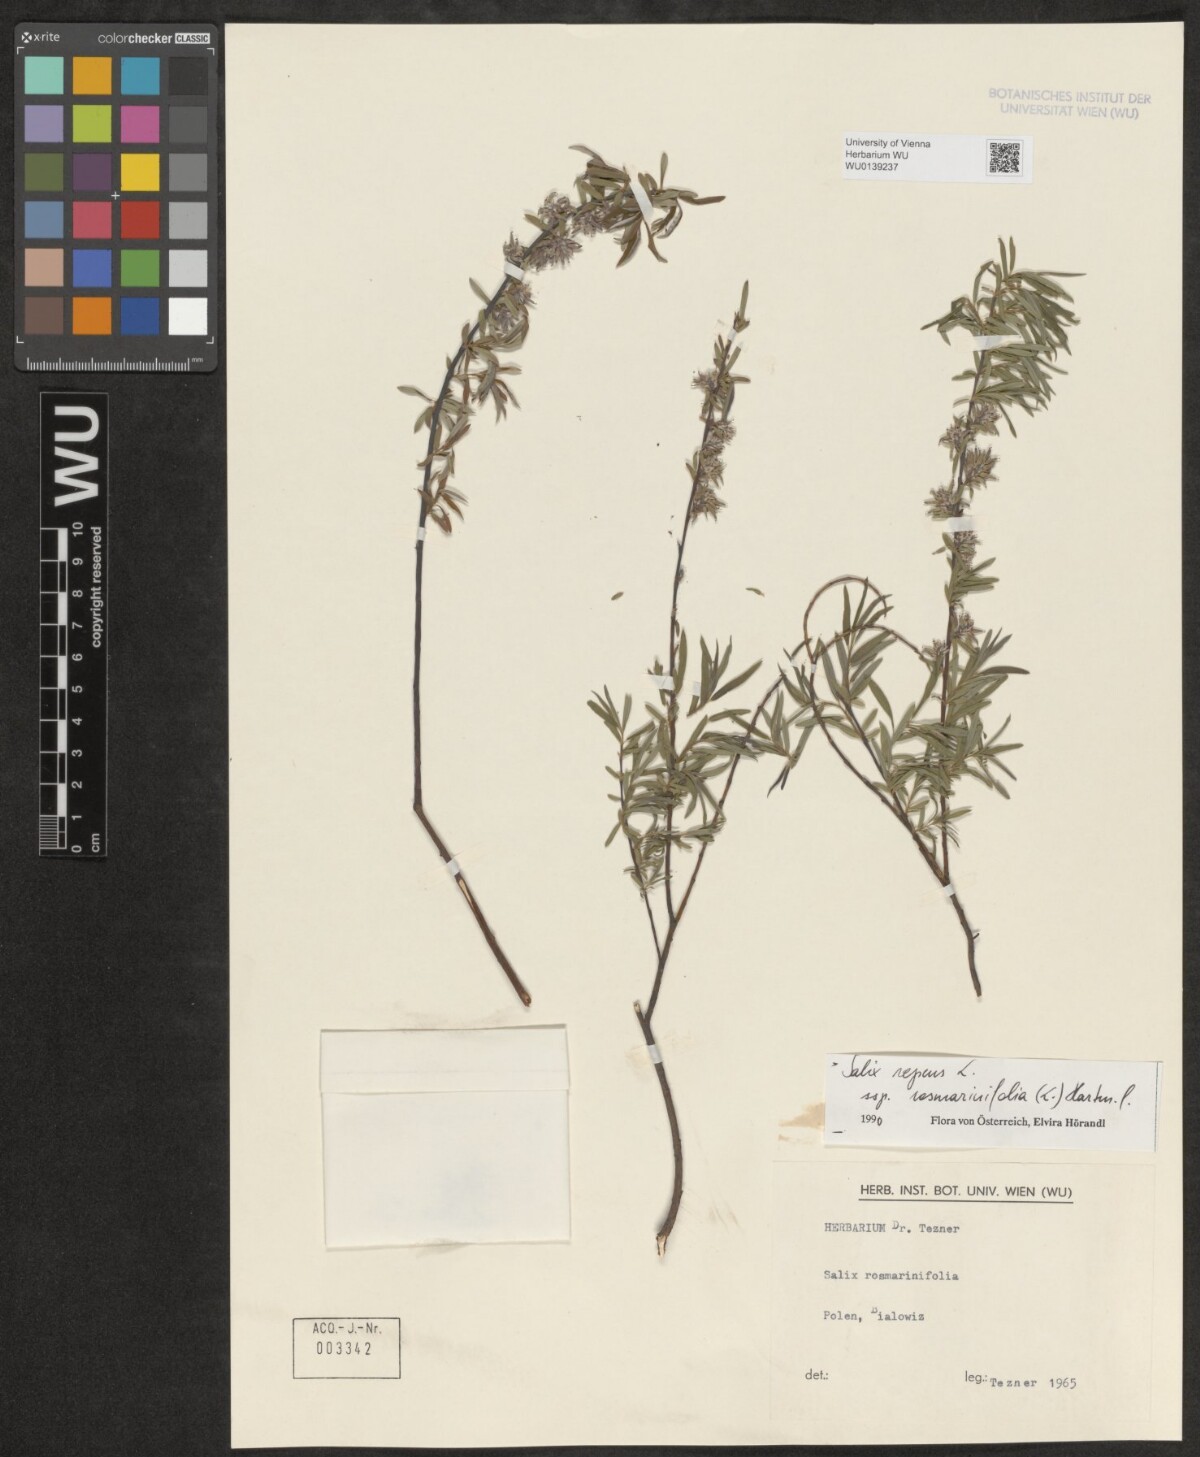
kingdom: Plantae
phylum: Tracheophyta
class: Magnoliopsida
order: Malpighiales
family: Salicaceae
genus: Salix
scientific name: Salix repens
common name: Creeping willow
